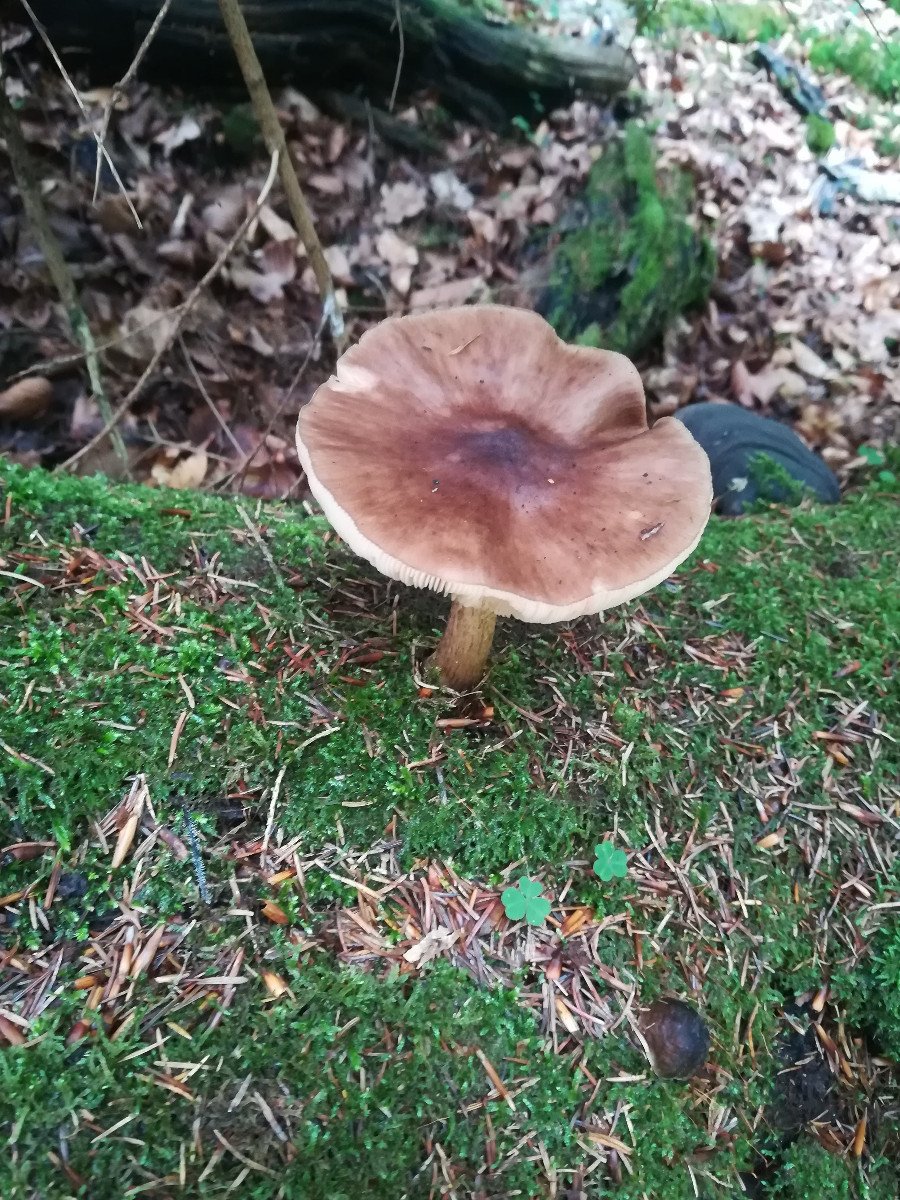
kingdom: Fungi
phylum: Basidiomycota
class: Agaricomycetes
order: Agaricales
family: Pluteaceae
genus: Pluteus
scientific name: Pluteus cervinus
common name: sodfarvet skærmhat
